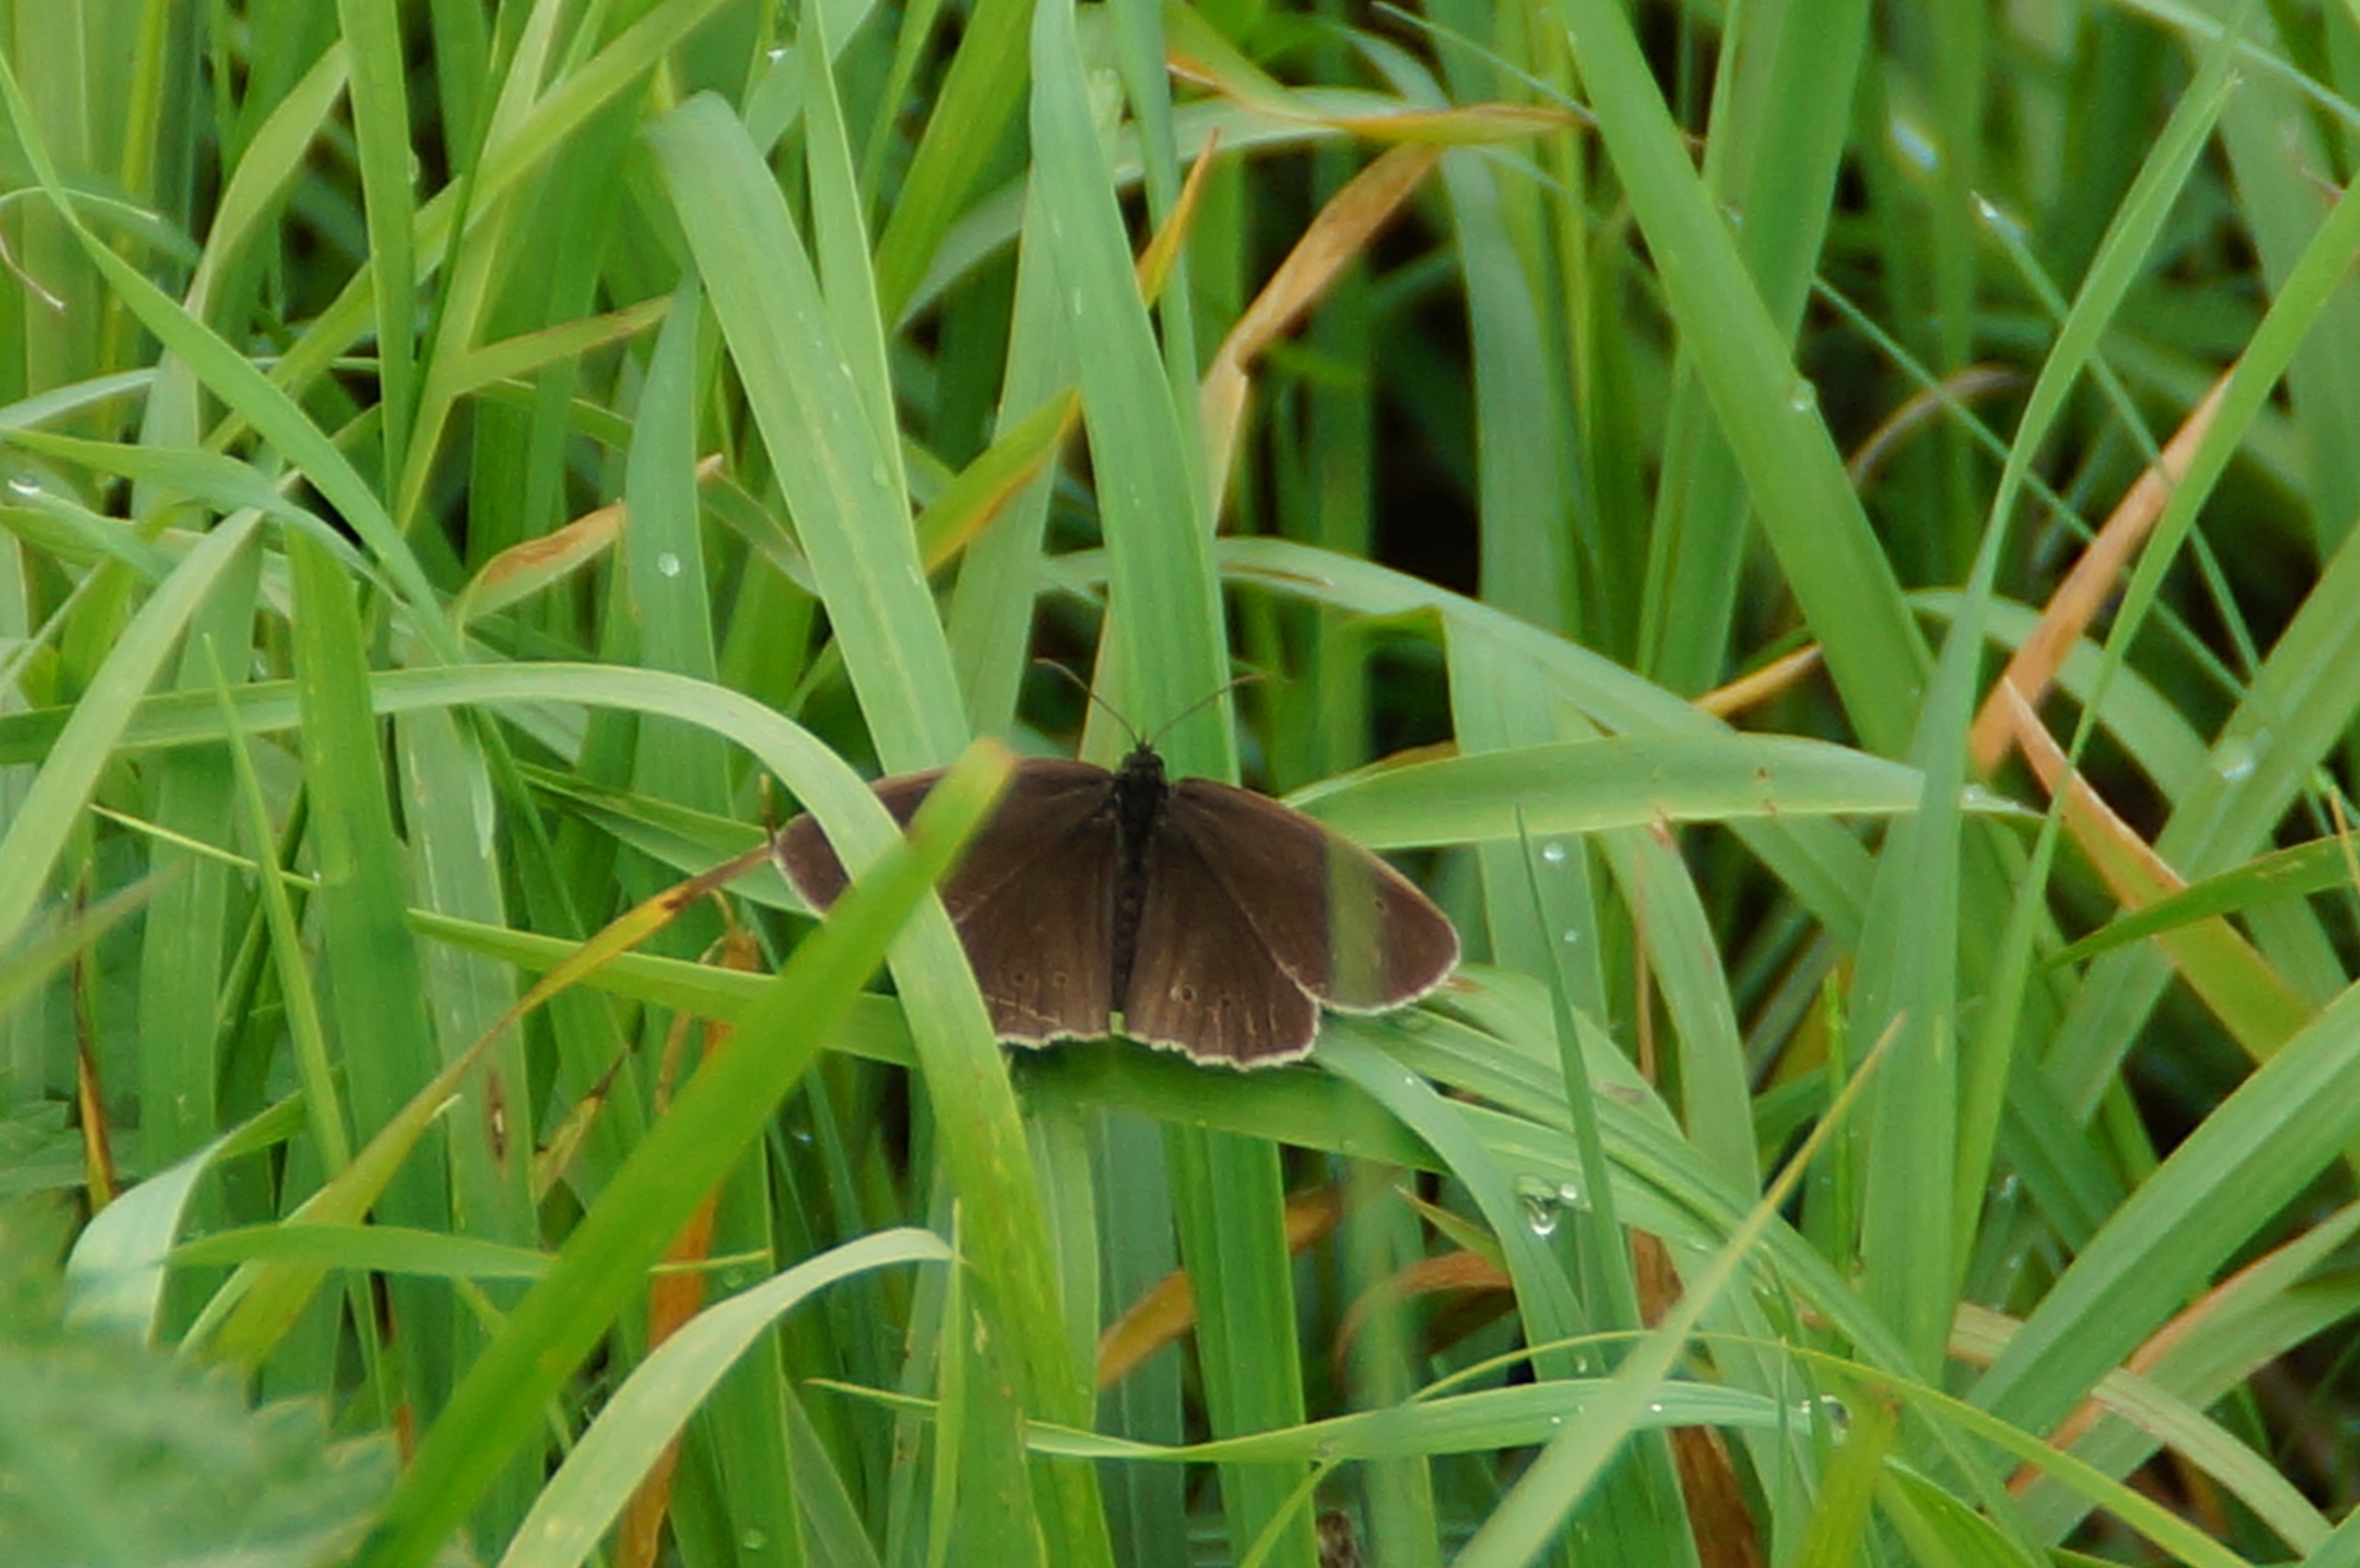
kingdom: Animalia
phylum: Arthropoda
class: Insecta
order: Lepidoptera
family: Nymphalidae
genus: Aphantopus
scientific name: Aphantopus hyperantus
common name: Engrandøje
